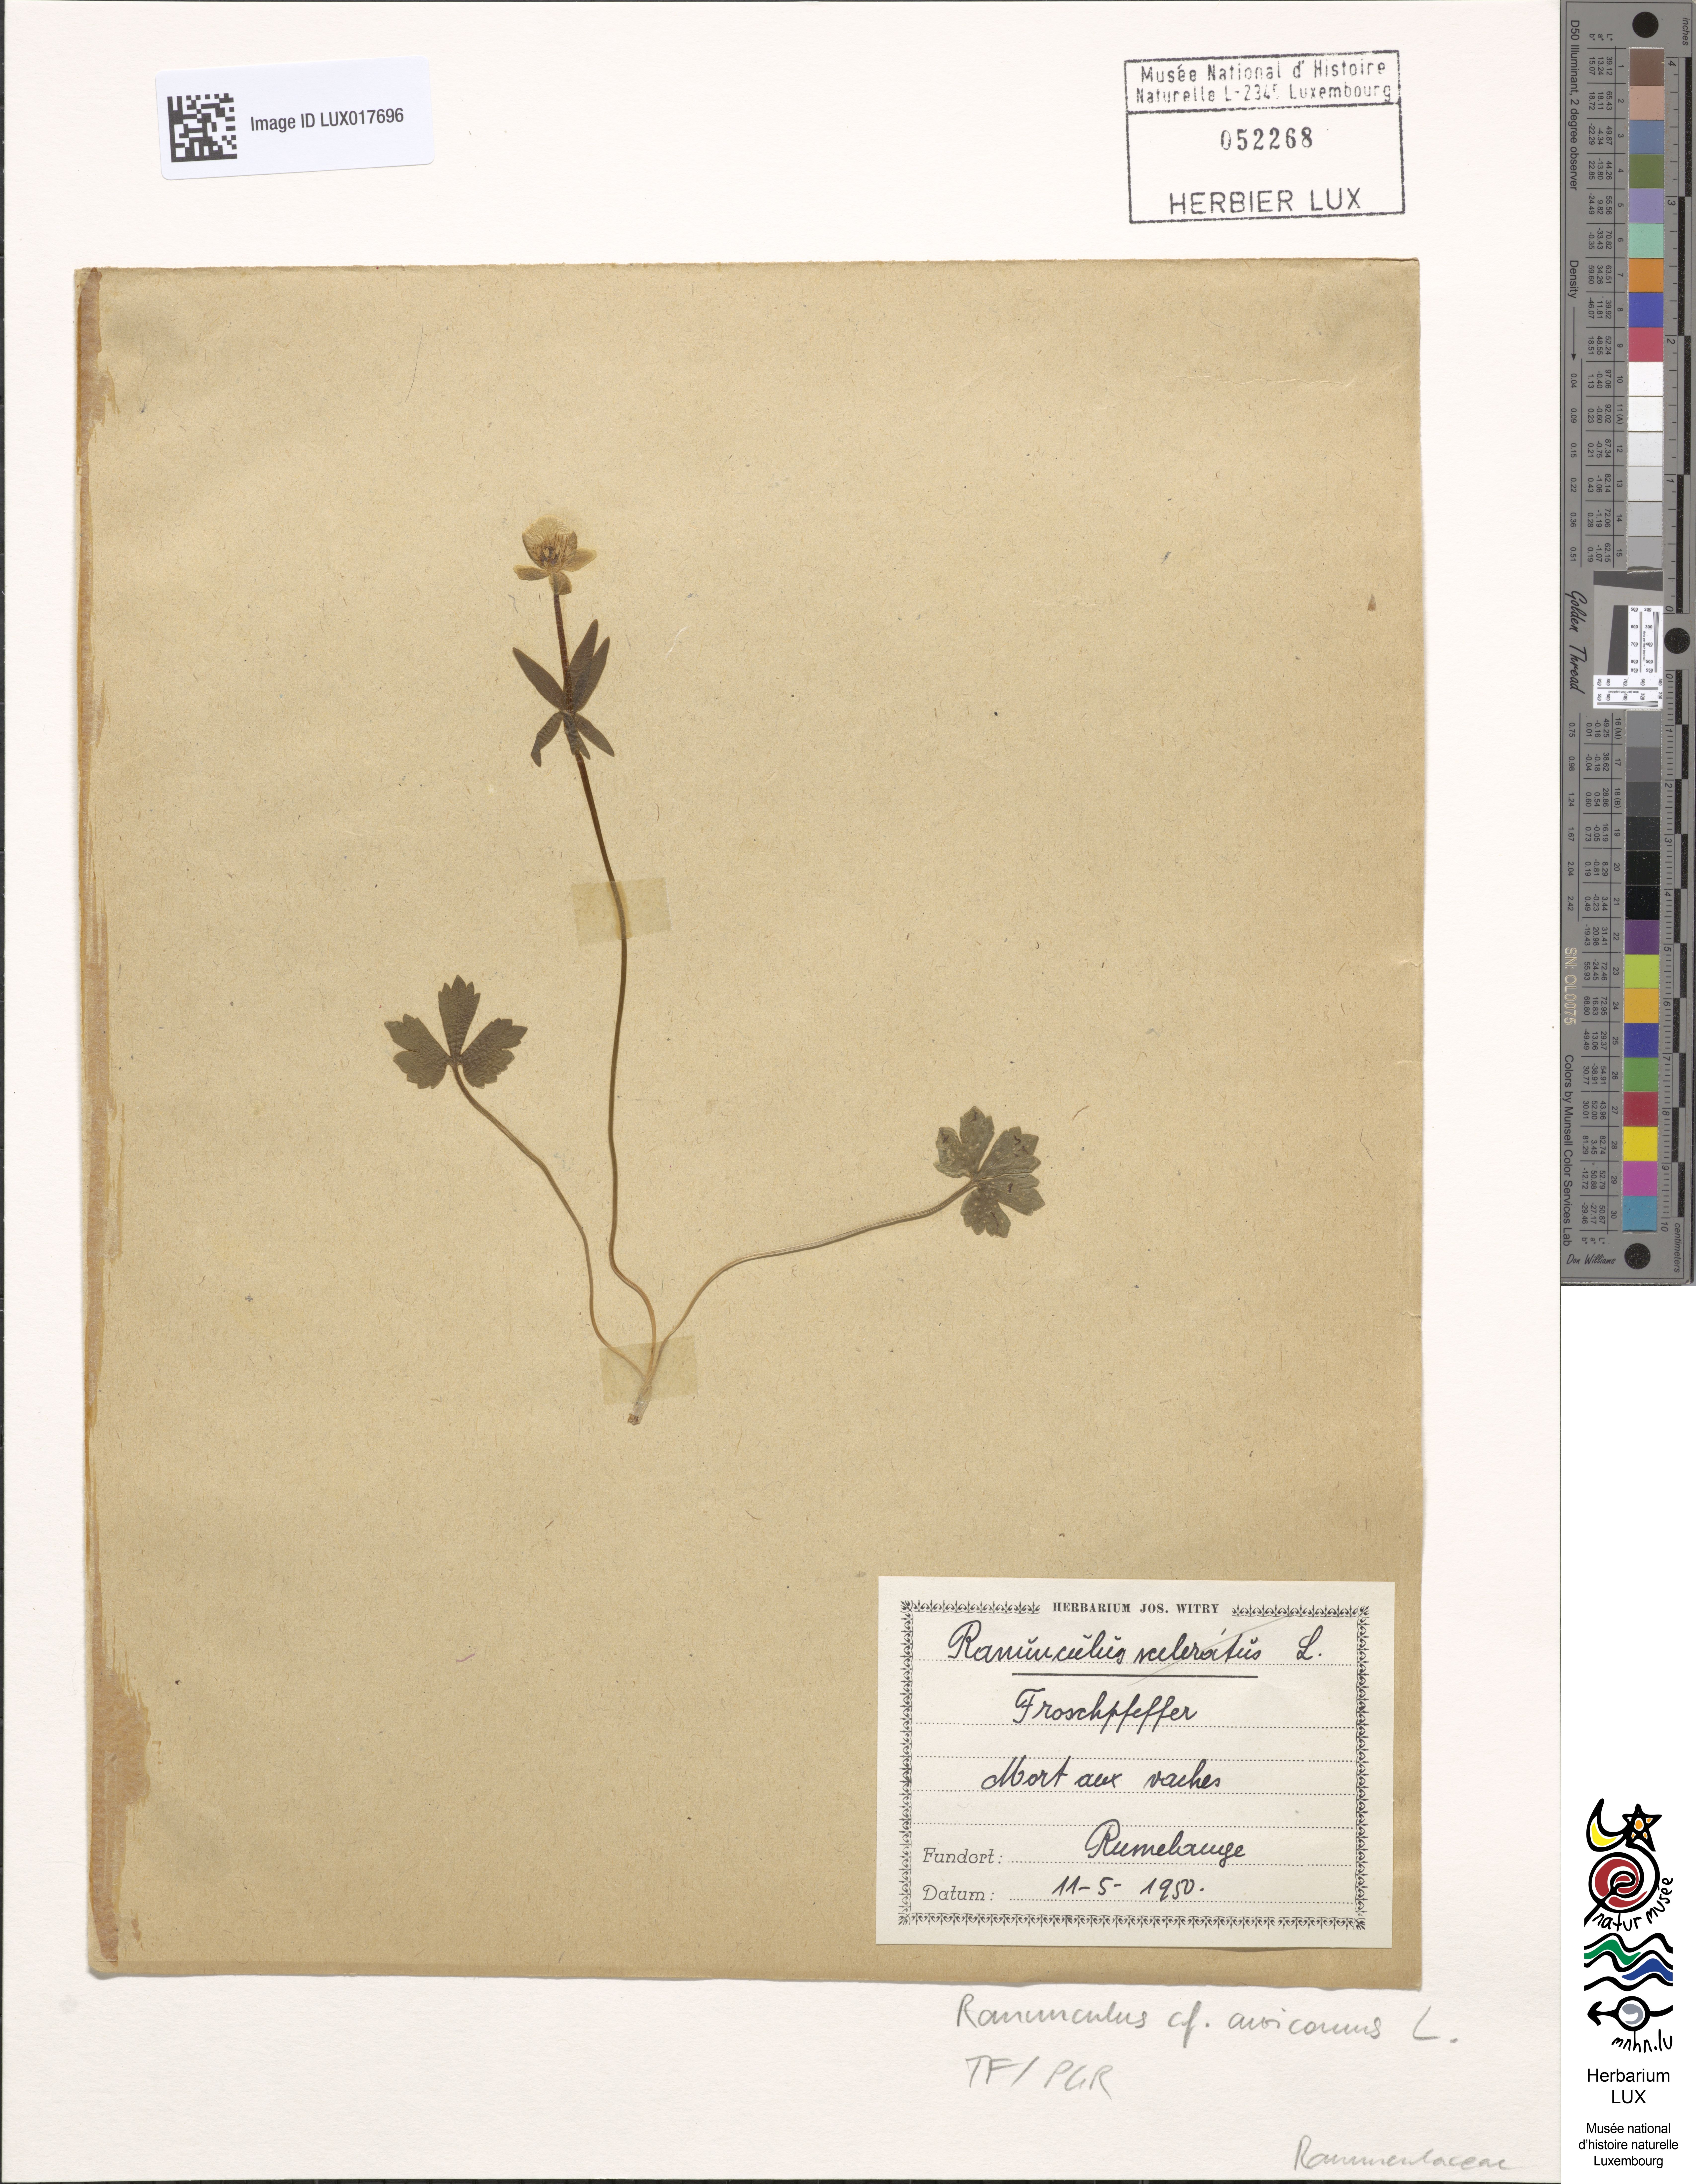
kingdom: Plantae
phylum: Tracheophyta
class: Magnoliopsida
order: Ranunculales
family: Ranunculaceae
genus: Ranunculus
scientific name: Ranunculus auricomus
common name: Goldilocks buttercup
